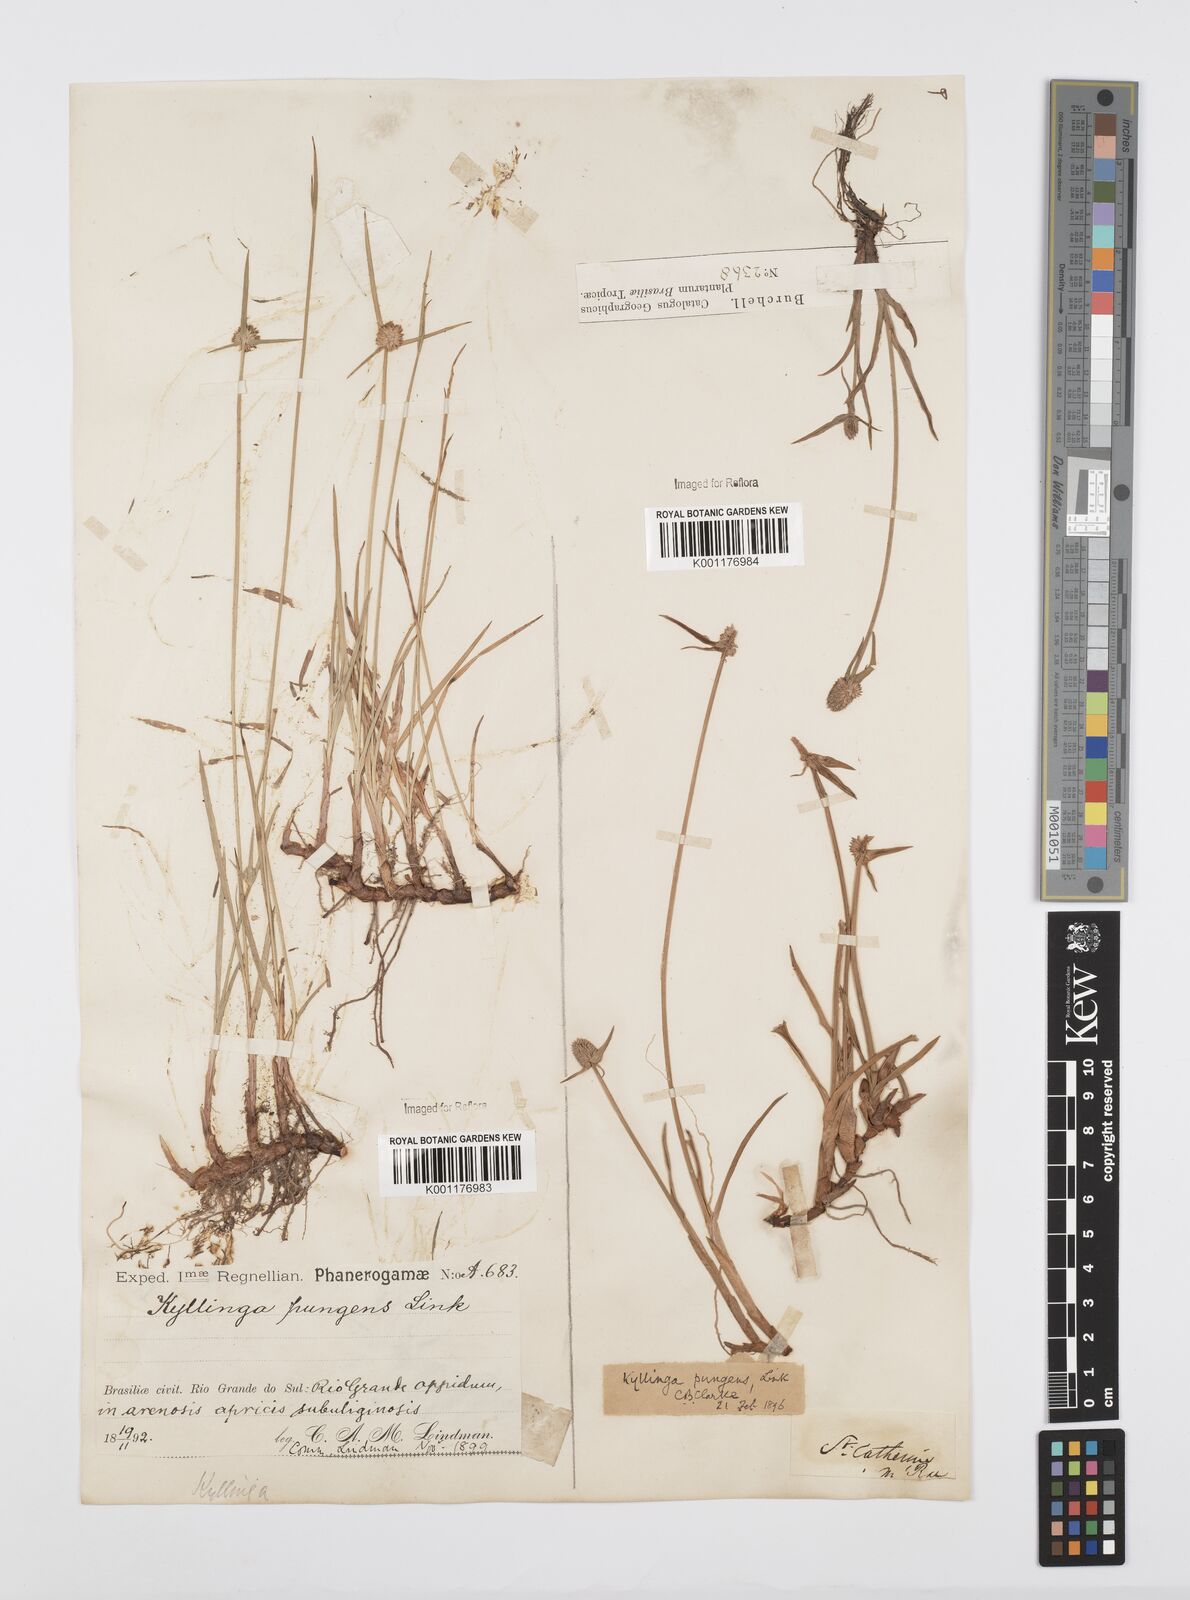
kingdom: Plantae
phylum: Tracheophyta
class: Liliopsida
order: Poales
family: Cyperaceae
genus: Cyperus
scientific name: Cyperus obtusatus
